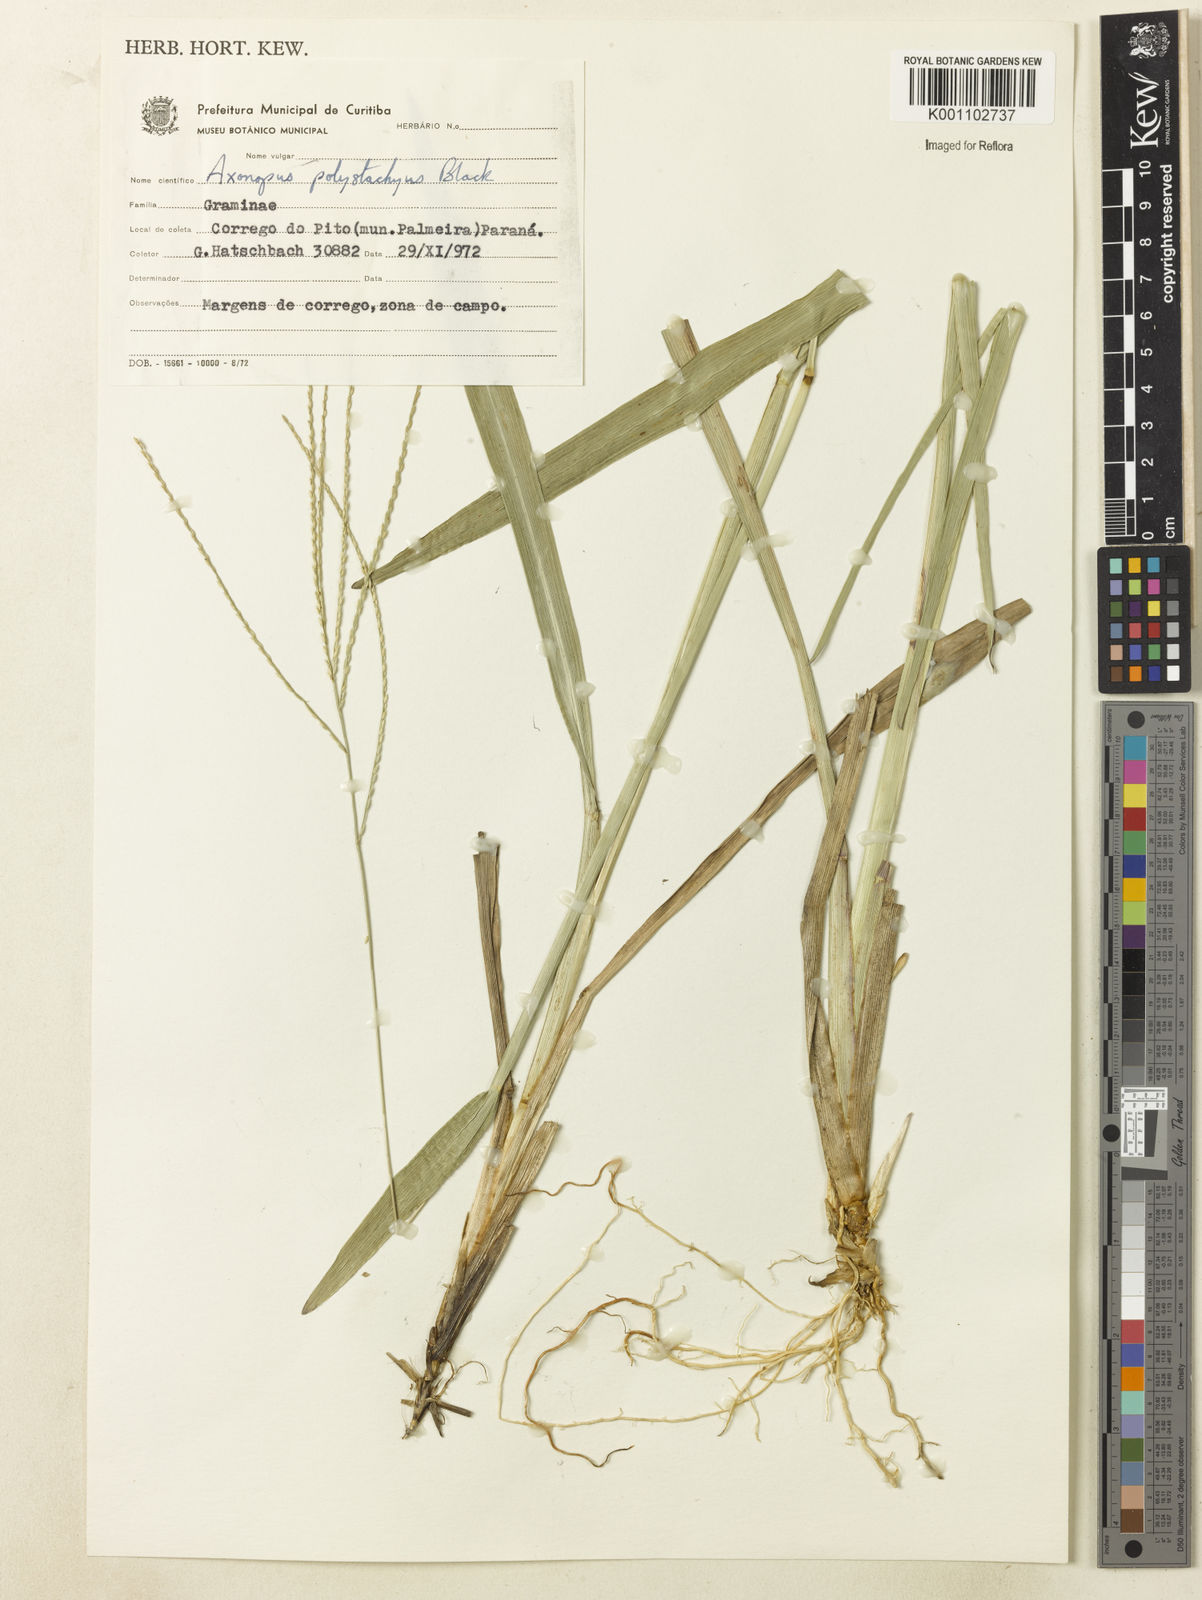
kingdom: Plantae
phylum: Tracheophyta
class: Liliopsida
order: Poales
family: Poaceae
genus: Axonopus
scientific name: Axonopus polystachyus
